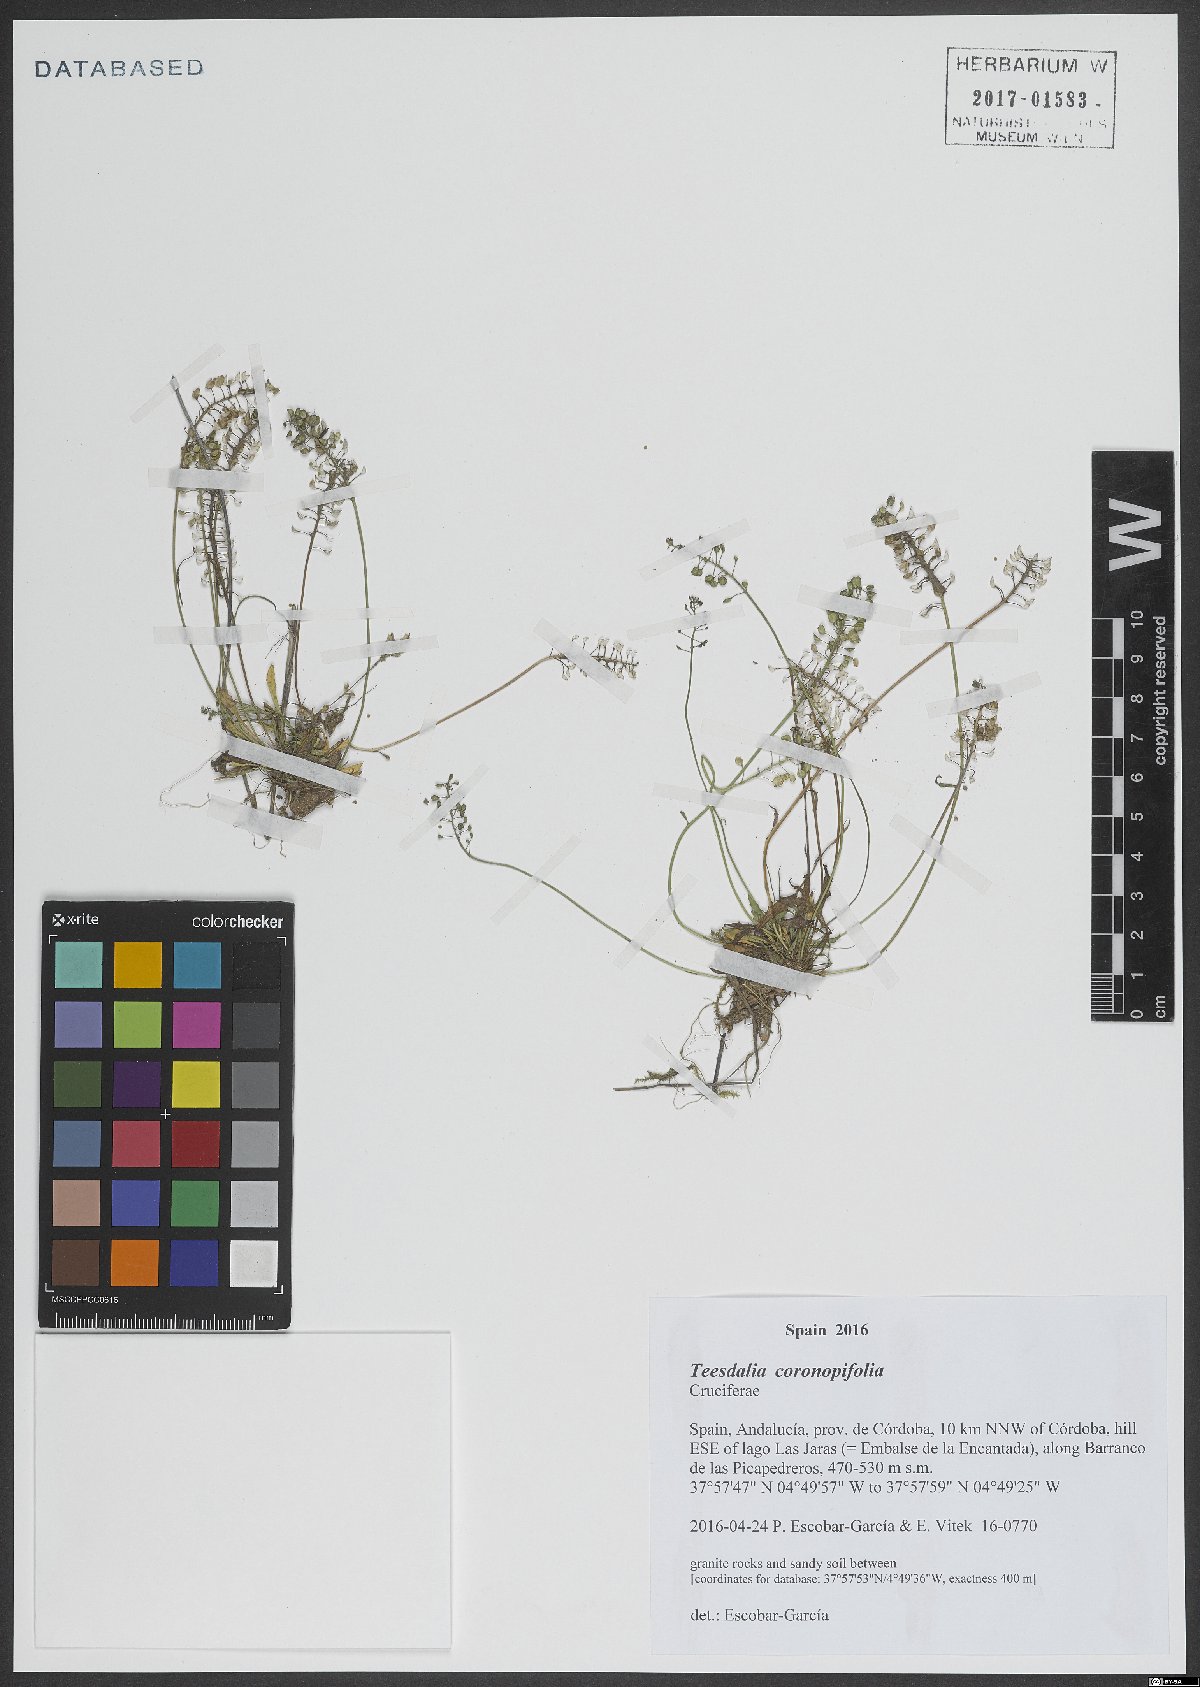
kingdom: Plantae
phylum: Tracheophyta
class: Magnoliopsida
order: Brassicales
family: Brassicaceae
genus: Teesdalia
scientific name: Teesdalia coronopifolia
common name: Lesser shepherdscress
